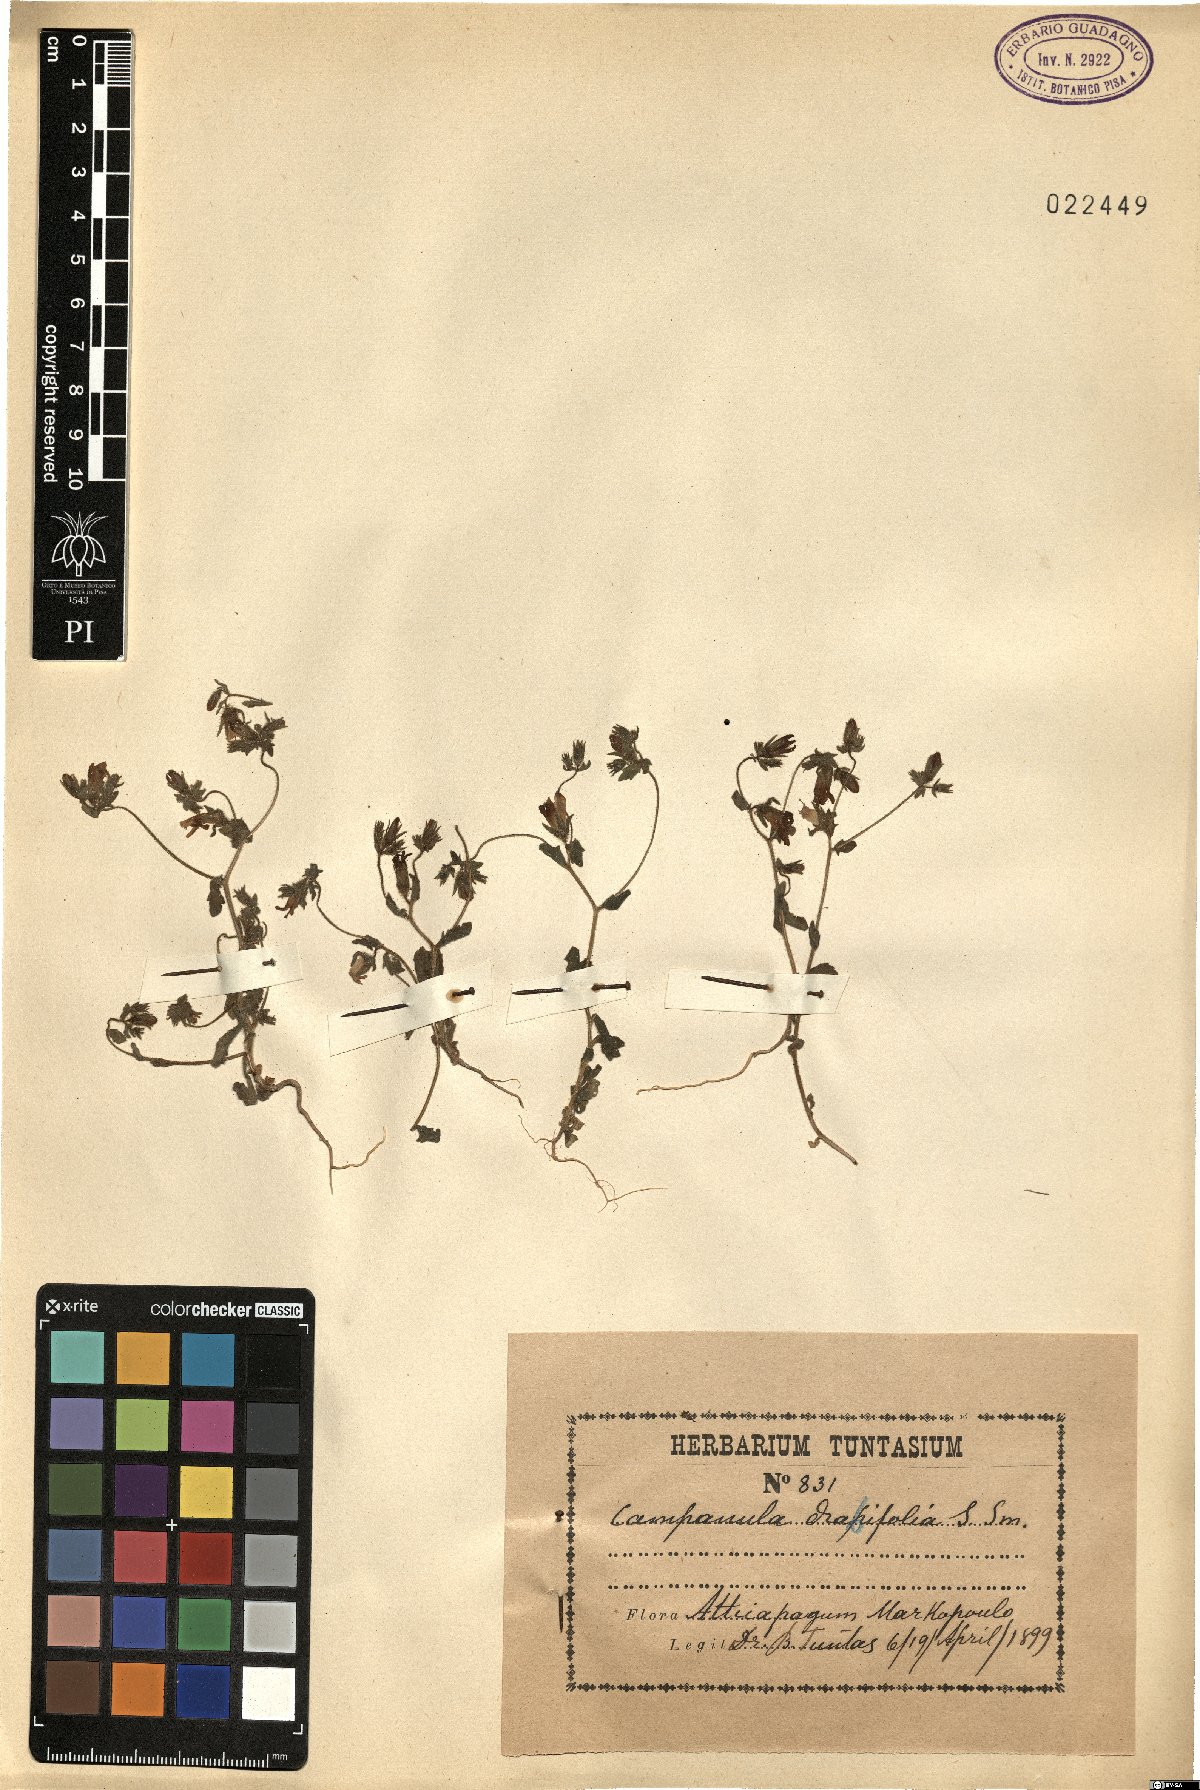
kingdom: Plantae
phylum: Tracheophyta
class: Magnoliopsida
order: Asterales
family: Campanulaceae
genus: Campanula
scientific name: Campanula drabifolia
